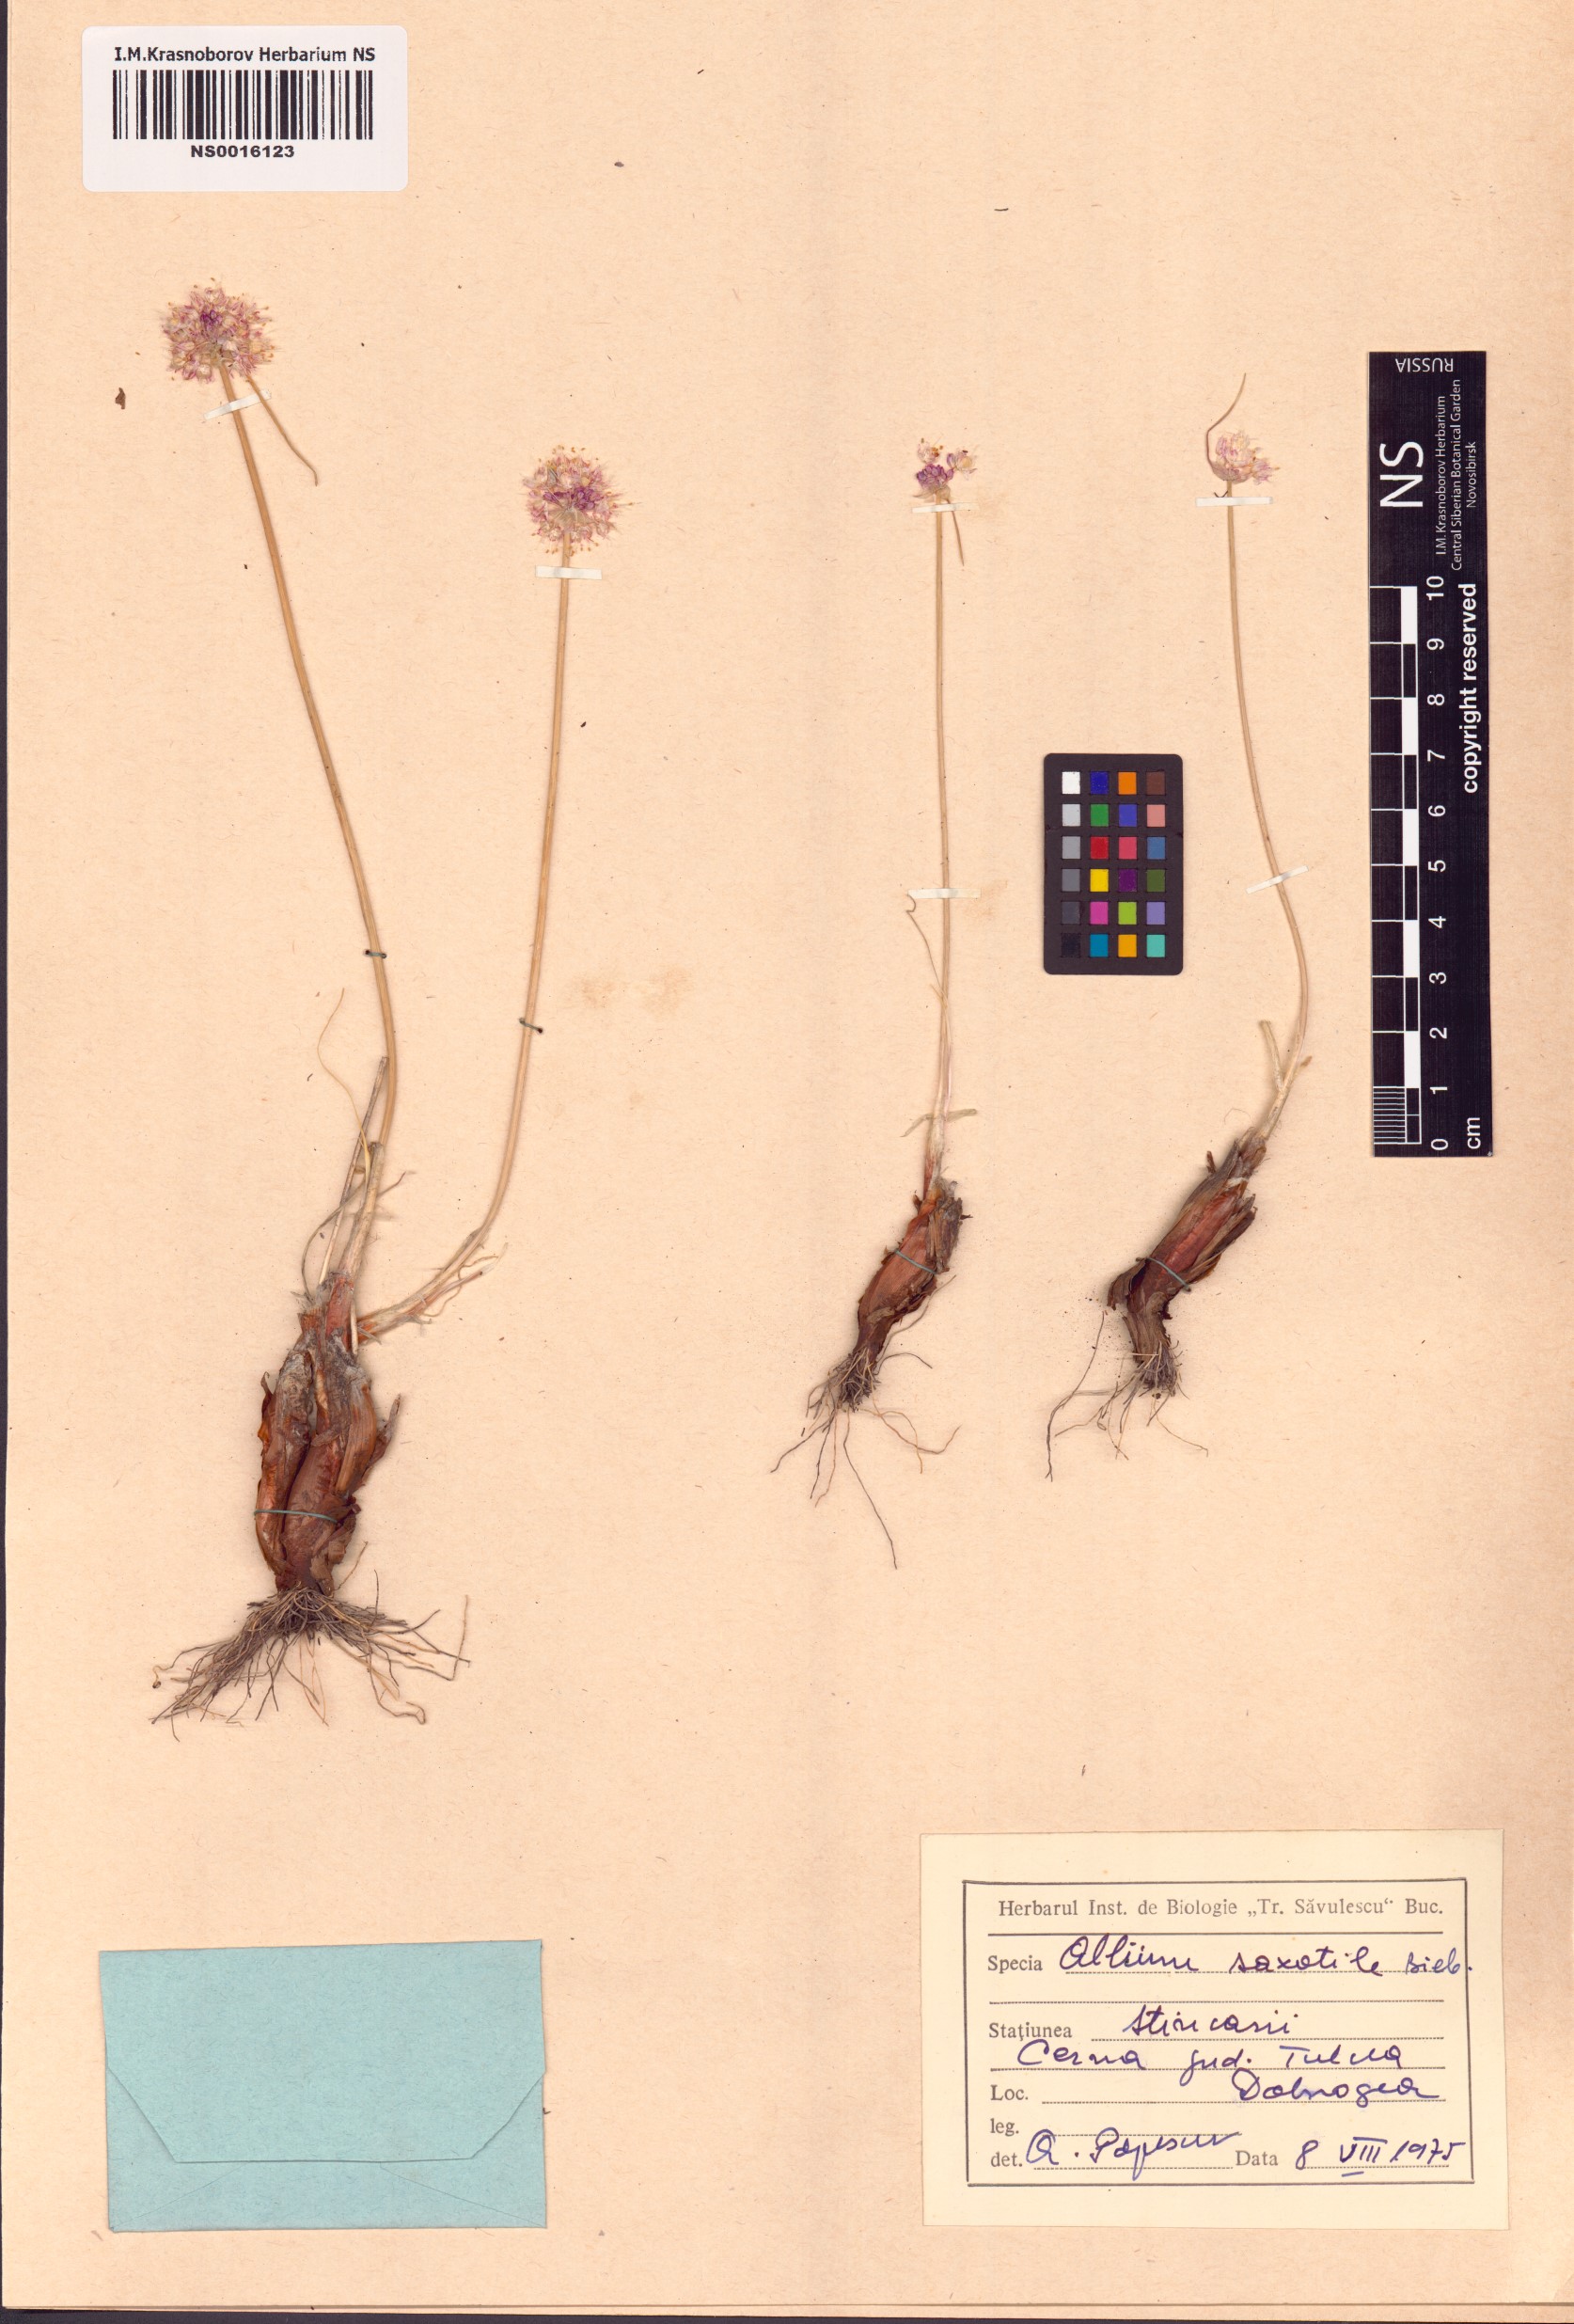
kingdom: Plantae
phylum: Tracheophyta
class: Liliopsida
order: Asparagales
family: Amaryllidaceae
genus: Allium
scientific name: Allium saxatile
